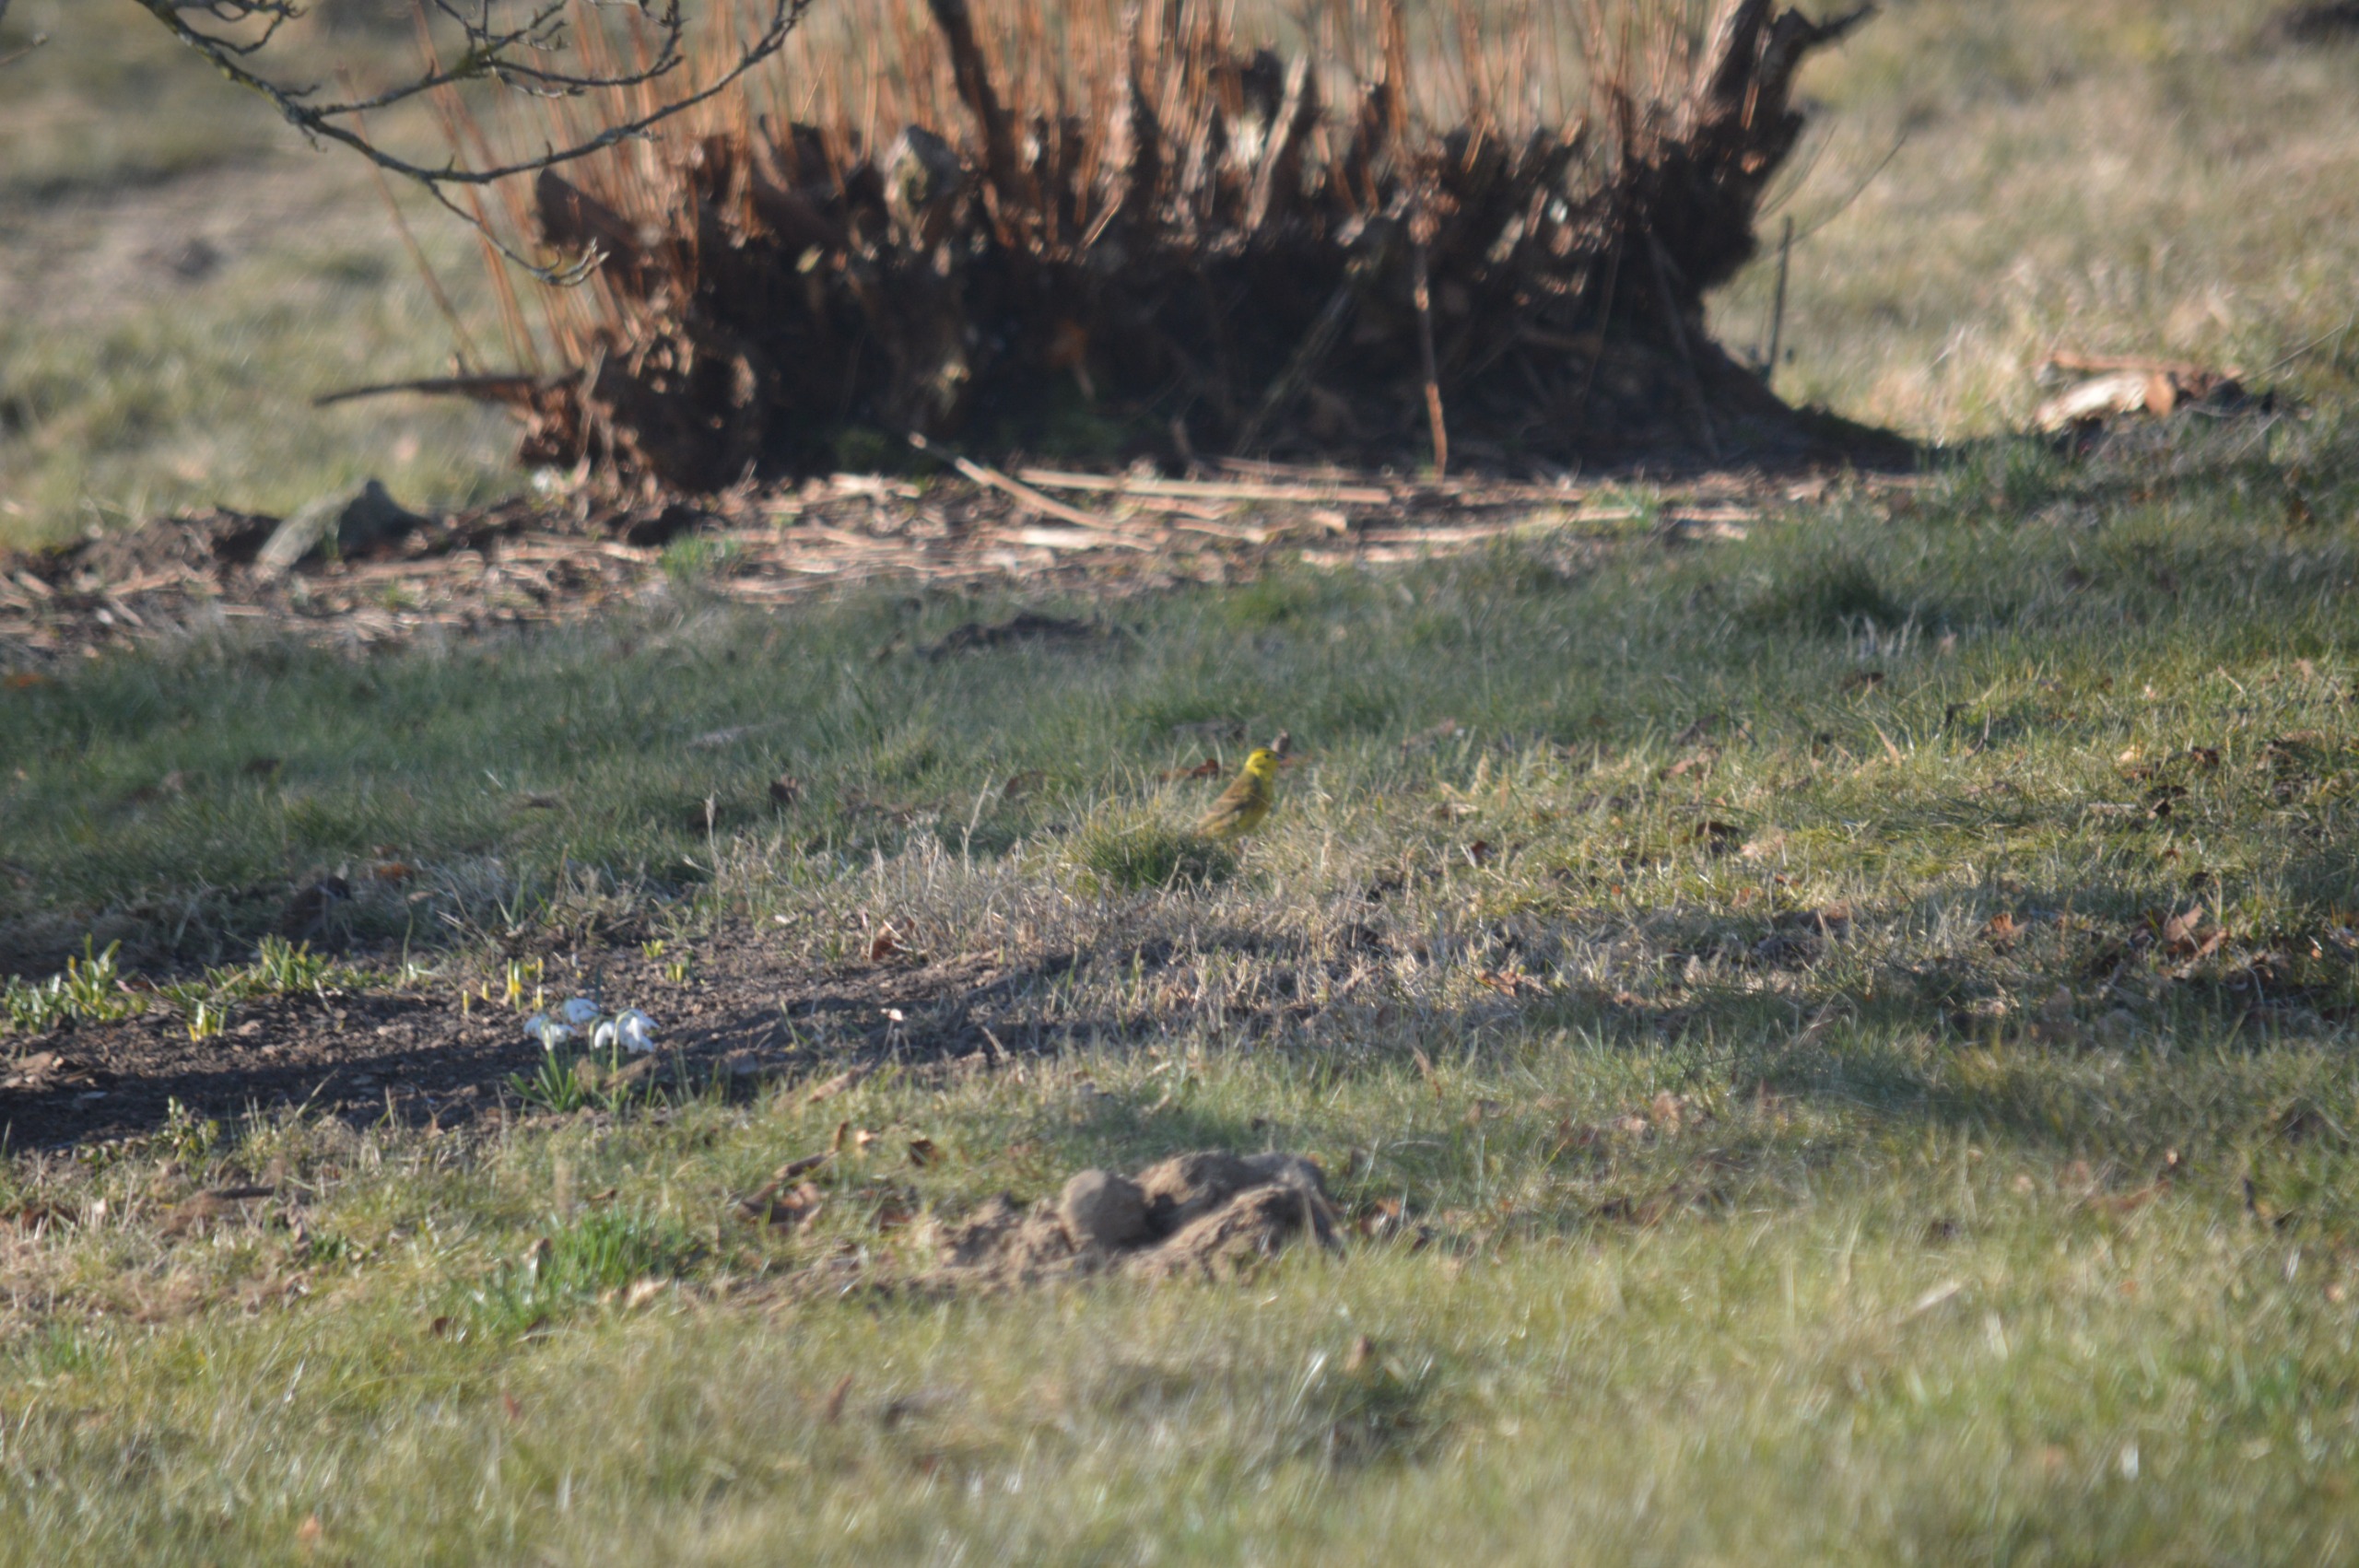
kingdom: Animalia
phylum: Chordata
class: Aves
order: Passeriformes
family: Emberizidae
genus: Emberiza
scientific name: Emberiza citrinella
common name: Gulspurv
